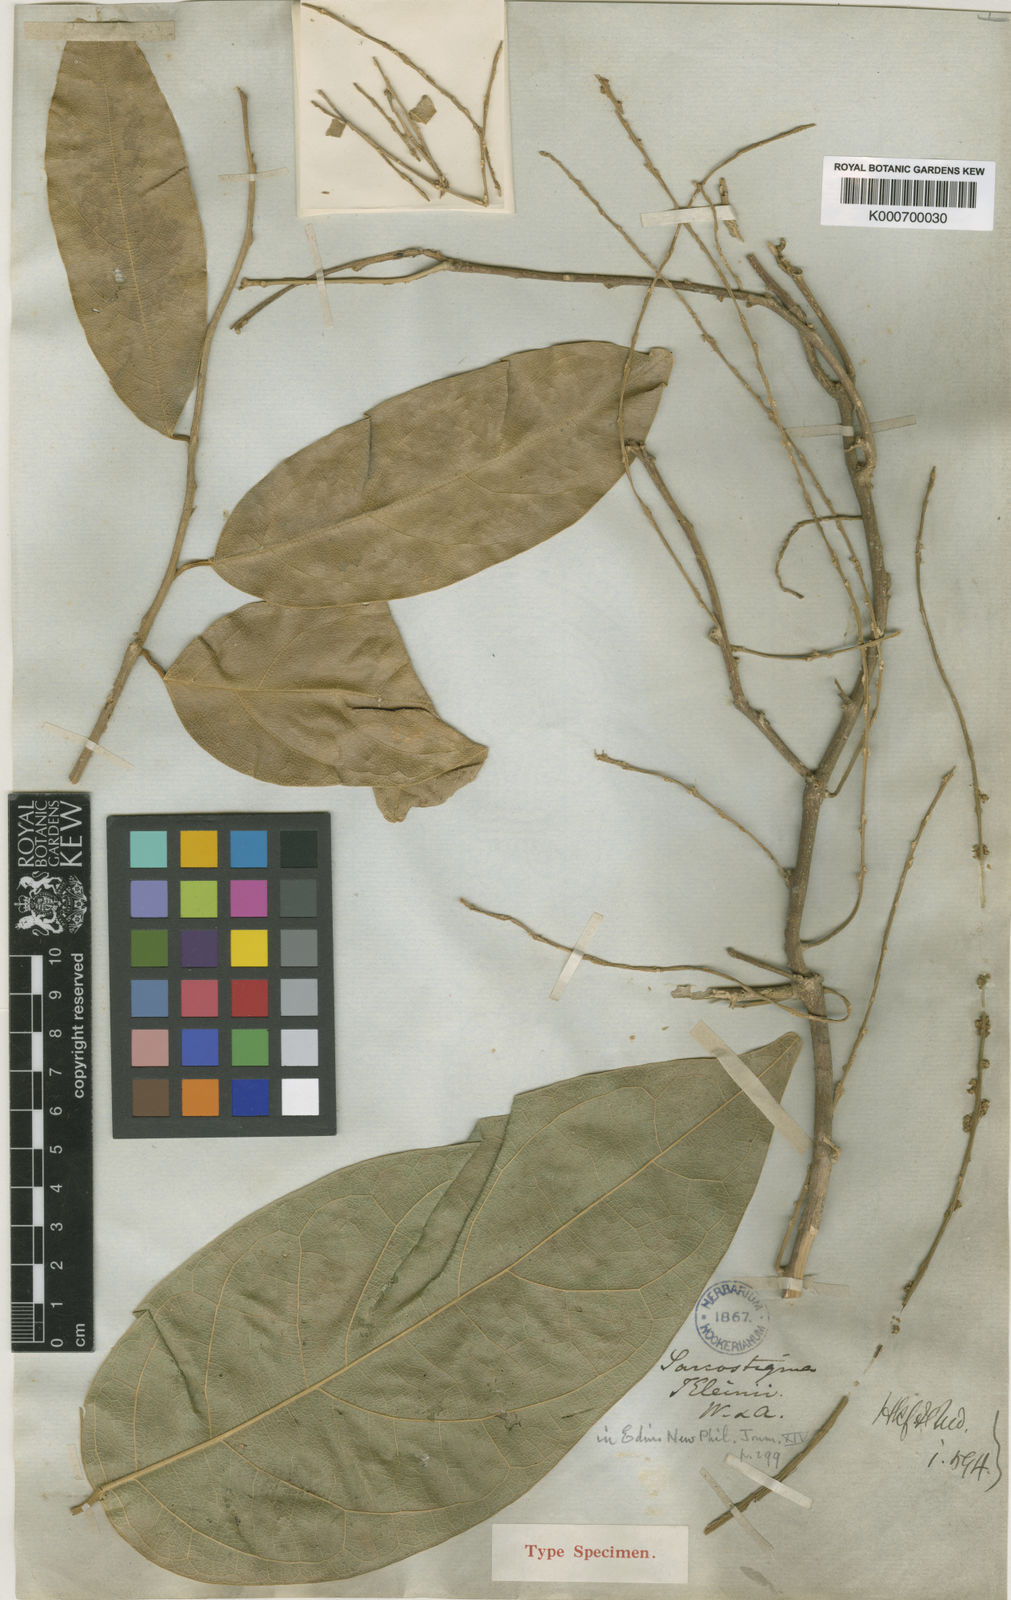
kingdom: Plantae
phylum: Tracheophyta
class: Magnoliopsida
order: Icacinales
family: Icacinaceae
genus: Sarcostigma
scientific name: Sarcostigma kleinii
